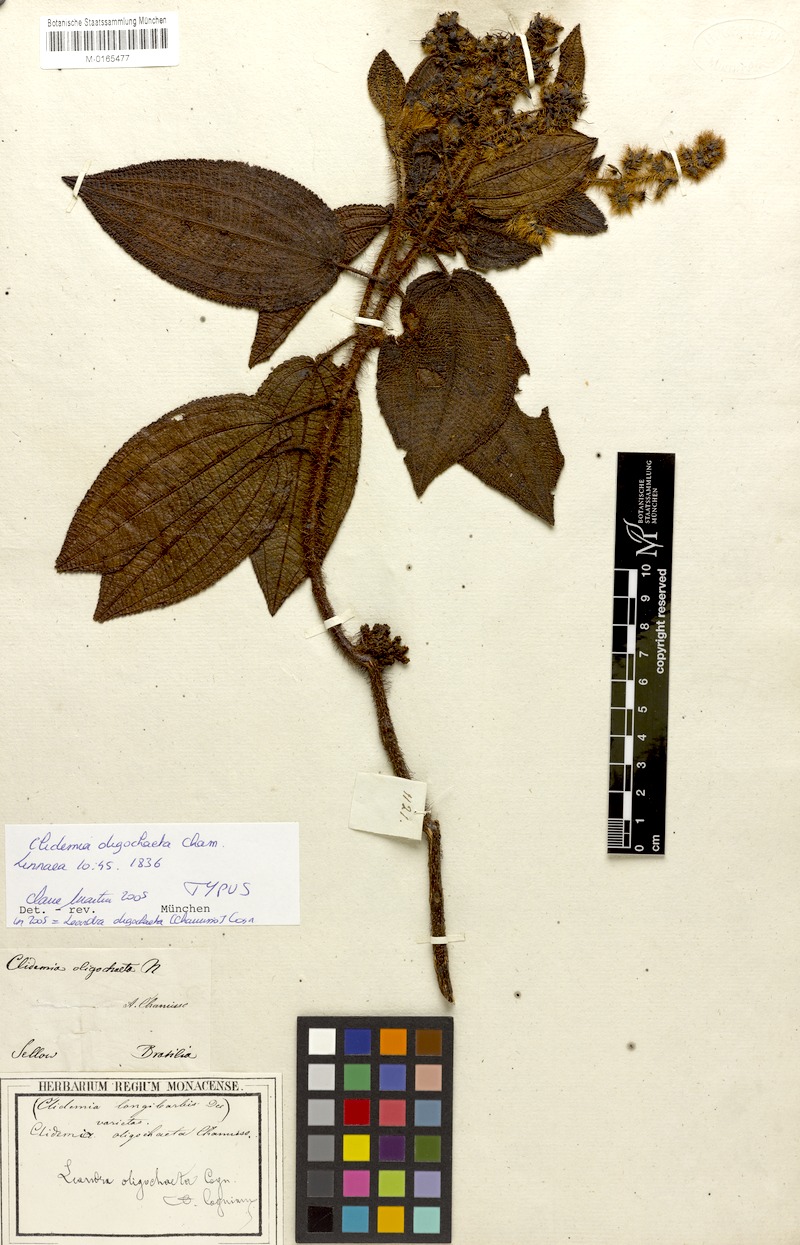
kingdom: Plantae
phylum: Tracheophyta
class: Magnoliopsida
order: Myrtales
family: Melastomataceae
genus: Miconia
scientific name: Miconia oligochaeta
